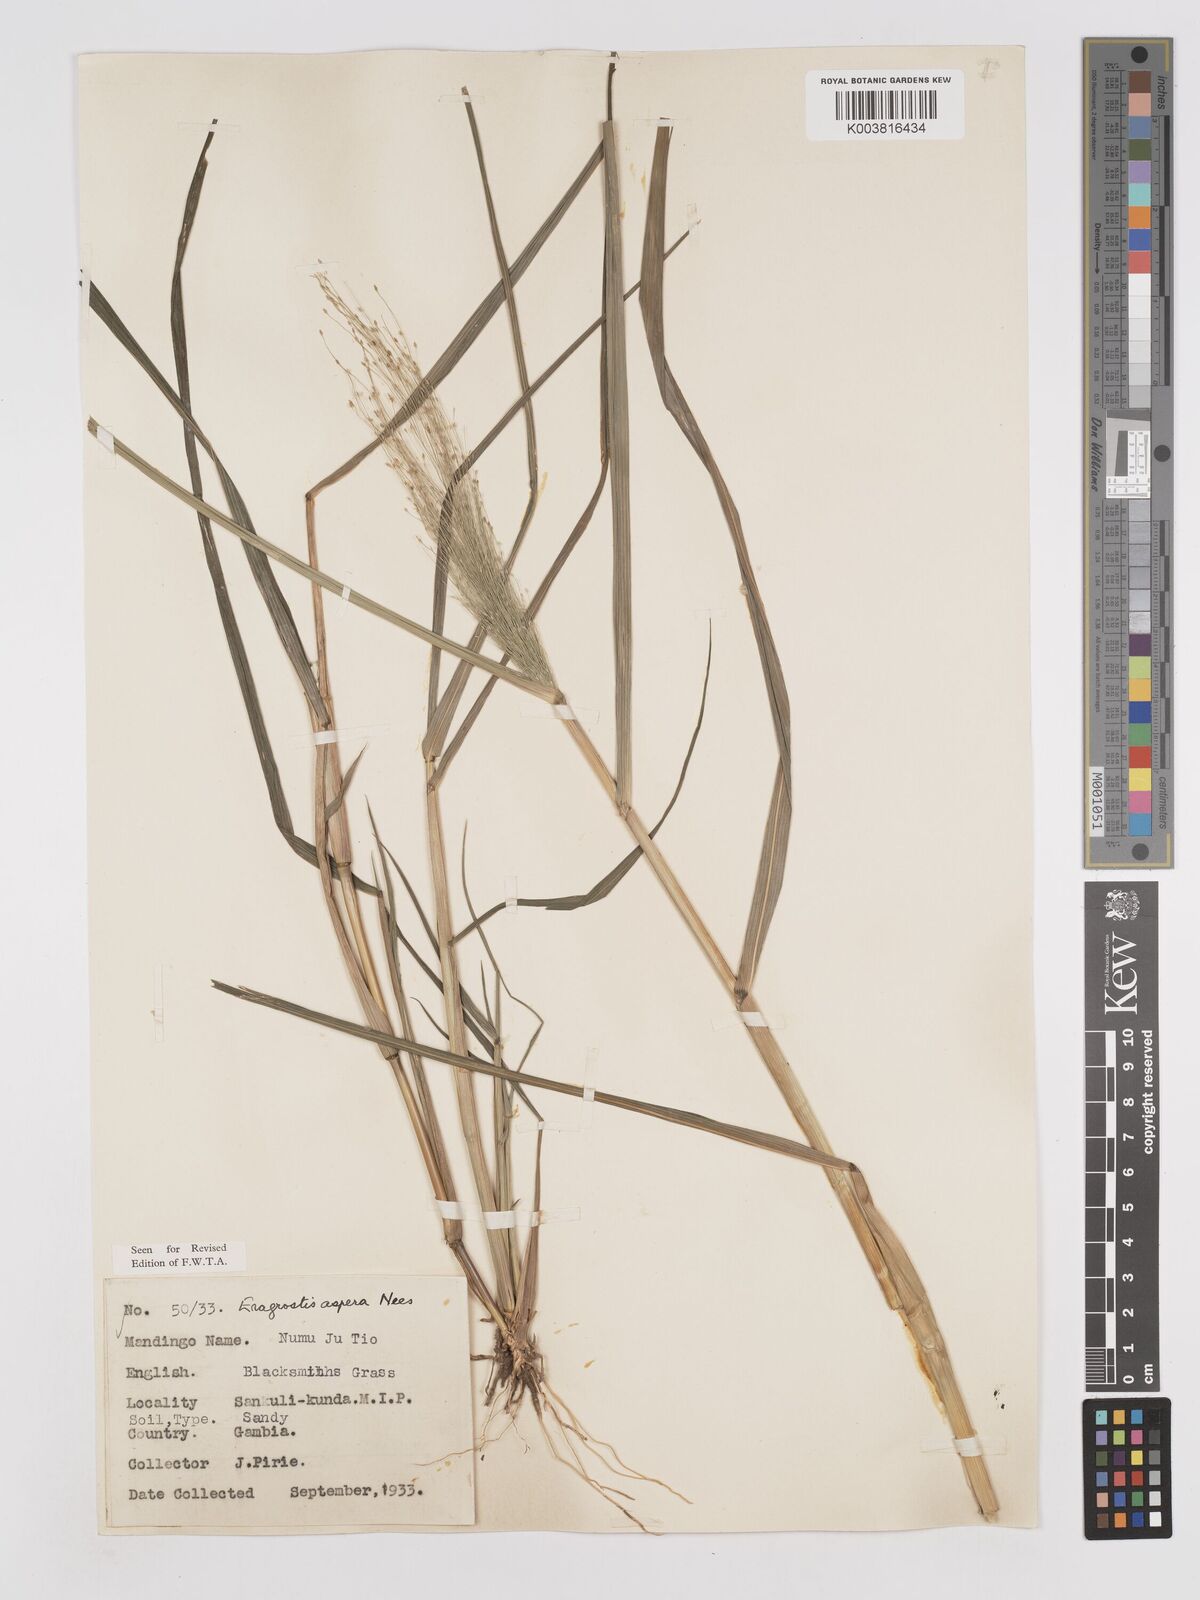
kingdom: Plantae
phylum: Tracheophyta
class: Liliopsida
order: Poales
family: Poaceae
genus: Eragrostis
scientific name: Eragrostis aspera
